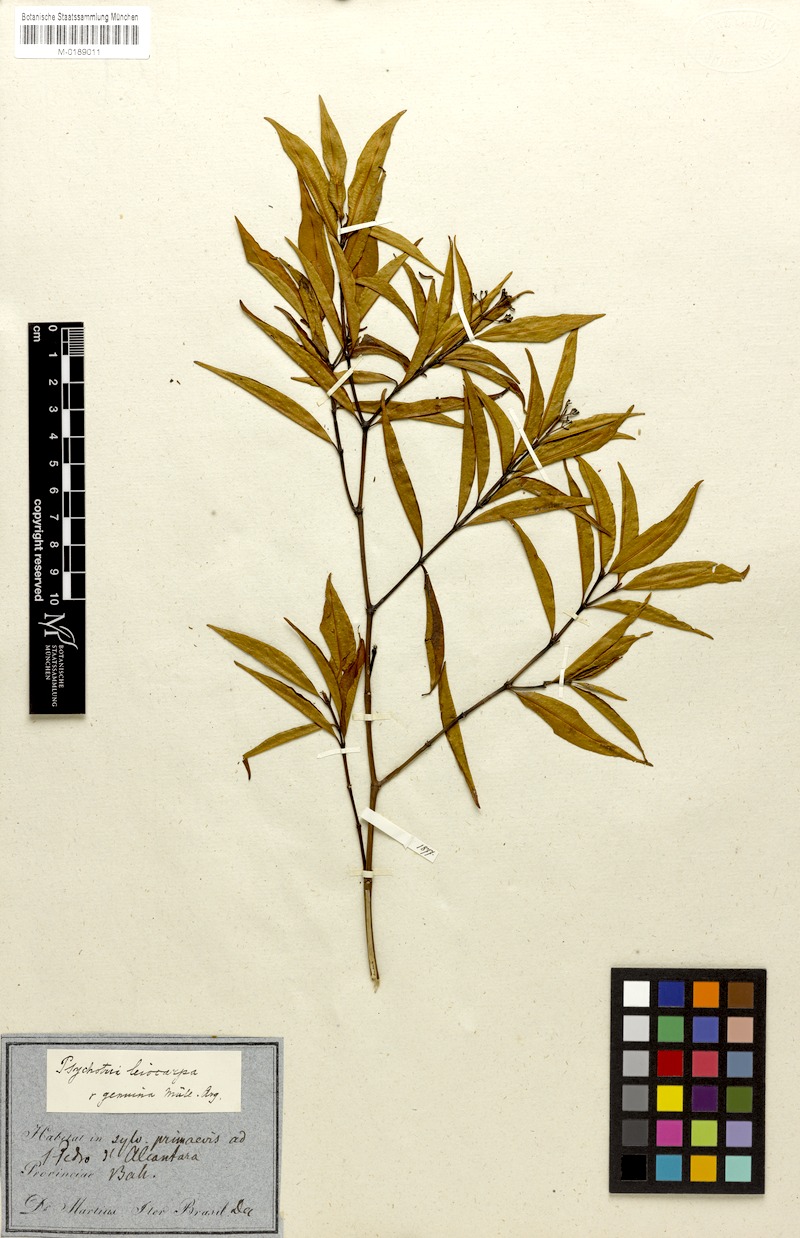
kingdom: Plantae
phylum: Tracheophyta
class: Magnoliopsida
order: Gentianales
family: Rubiaceae
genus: Psychotria
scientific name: Psychotria leiocarpa
